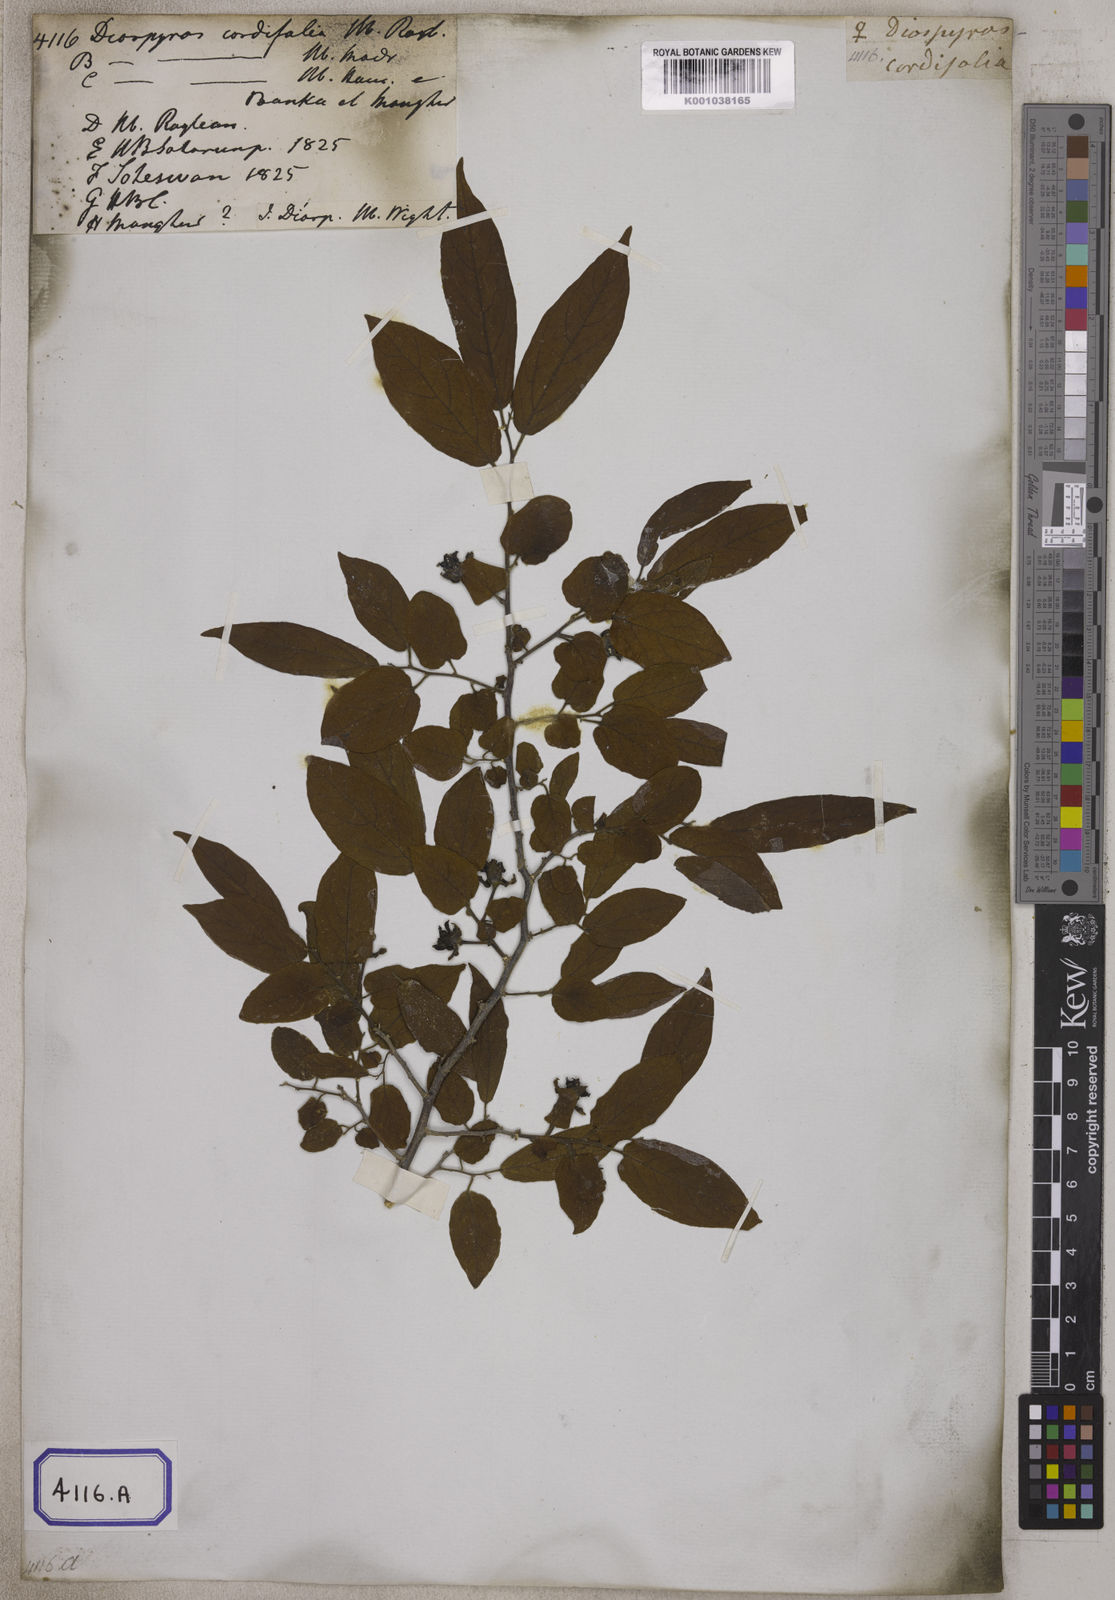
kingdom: Plantae
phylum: Tracheophyta
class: Magnoliopsida
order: Ericales
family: Ebenaceae
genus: Diospyros
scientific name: Diospyros montana
